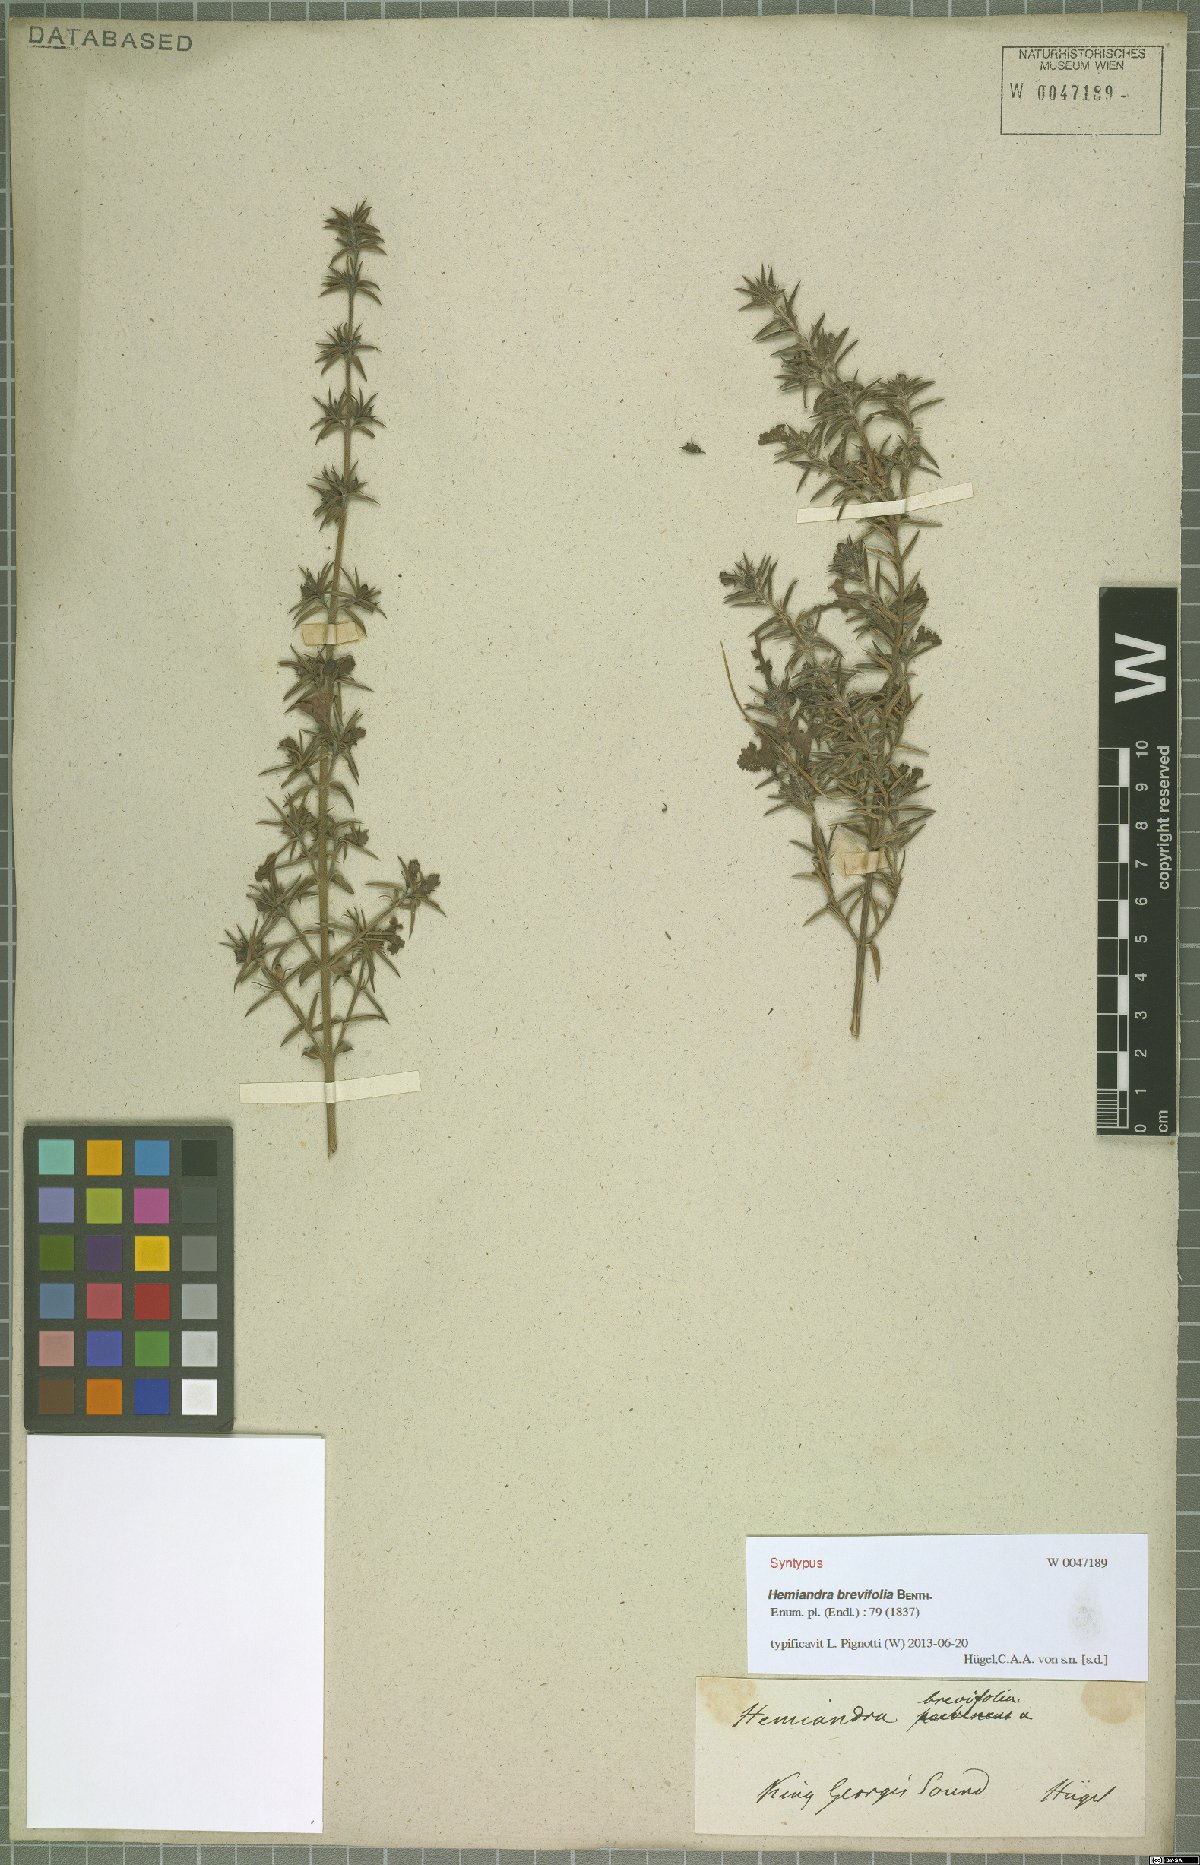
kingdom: Plantae
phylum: Tracheophyta
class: Magnoliopsida
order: Lamiales
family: Lamiaceae
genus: Hemiandra
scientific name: Hemiandra pungens
